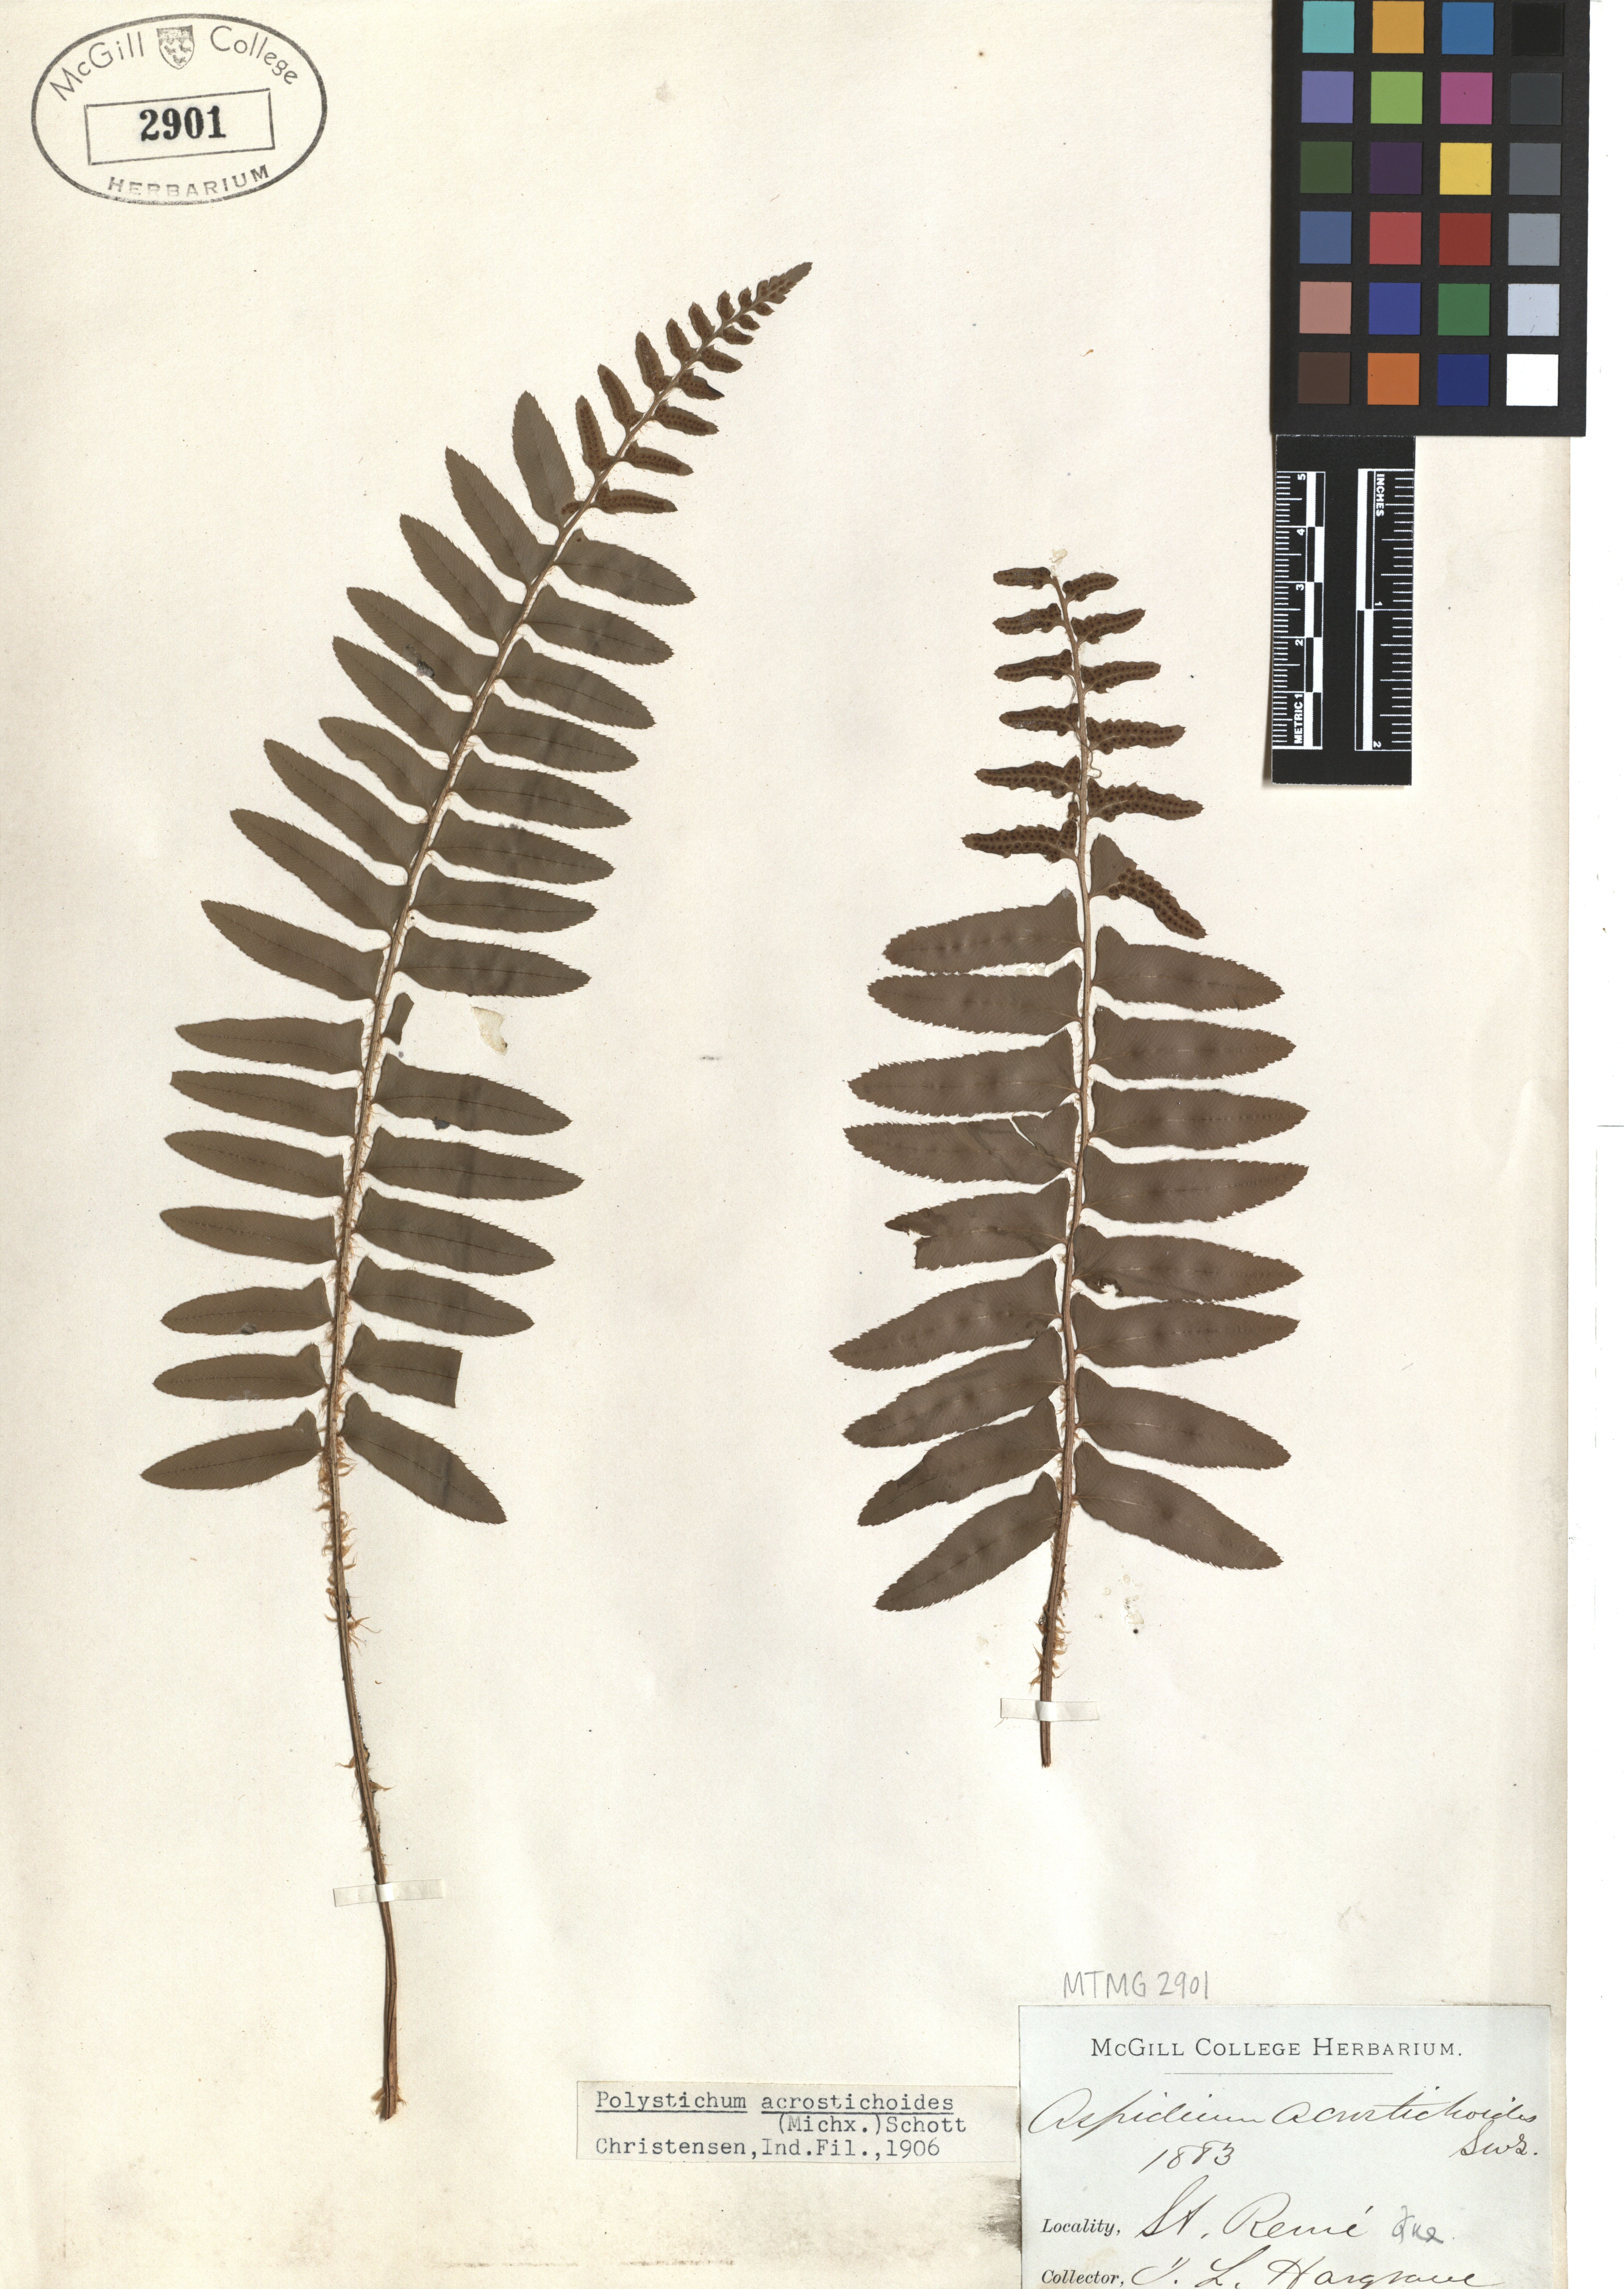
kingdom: Plantae
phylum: Tracheophyta
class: Polypodiopsida
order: Polypodiales
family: Dryopteridaceae
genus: Polystichum
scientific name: Polystichum acrostichoides
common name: Christmas fern
